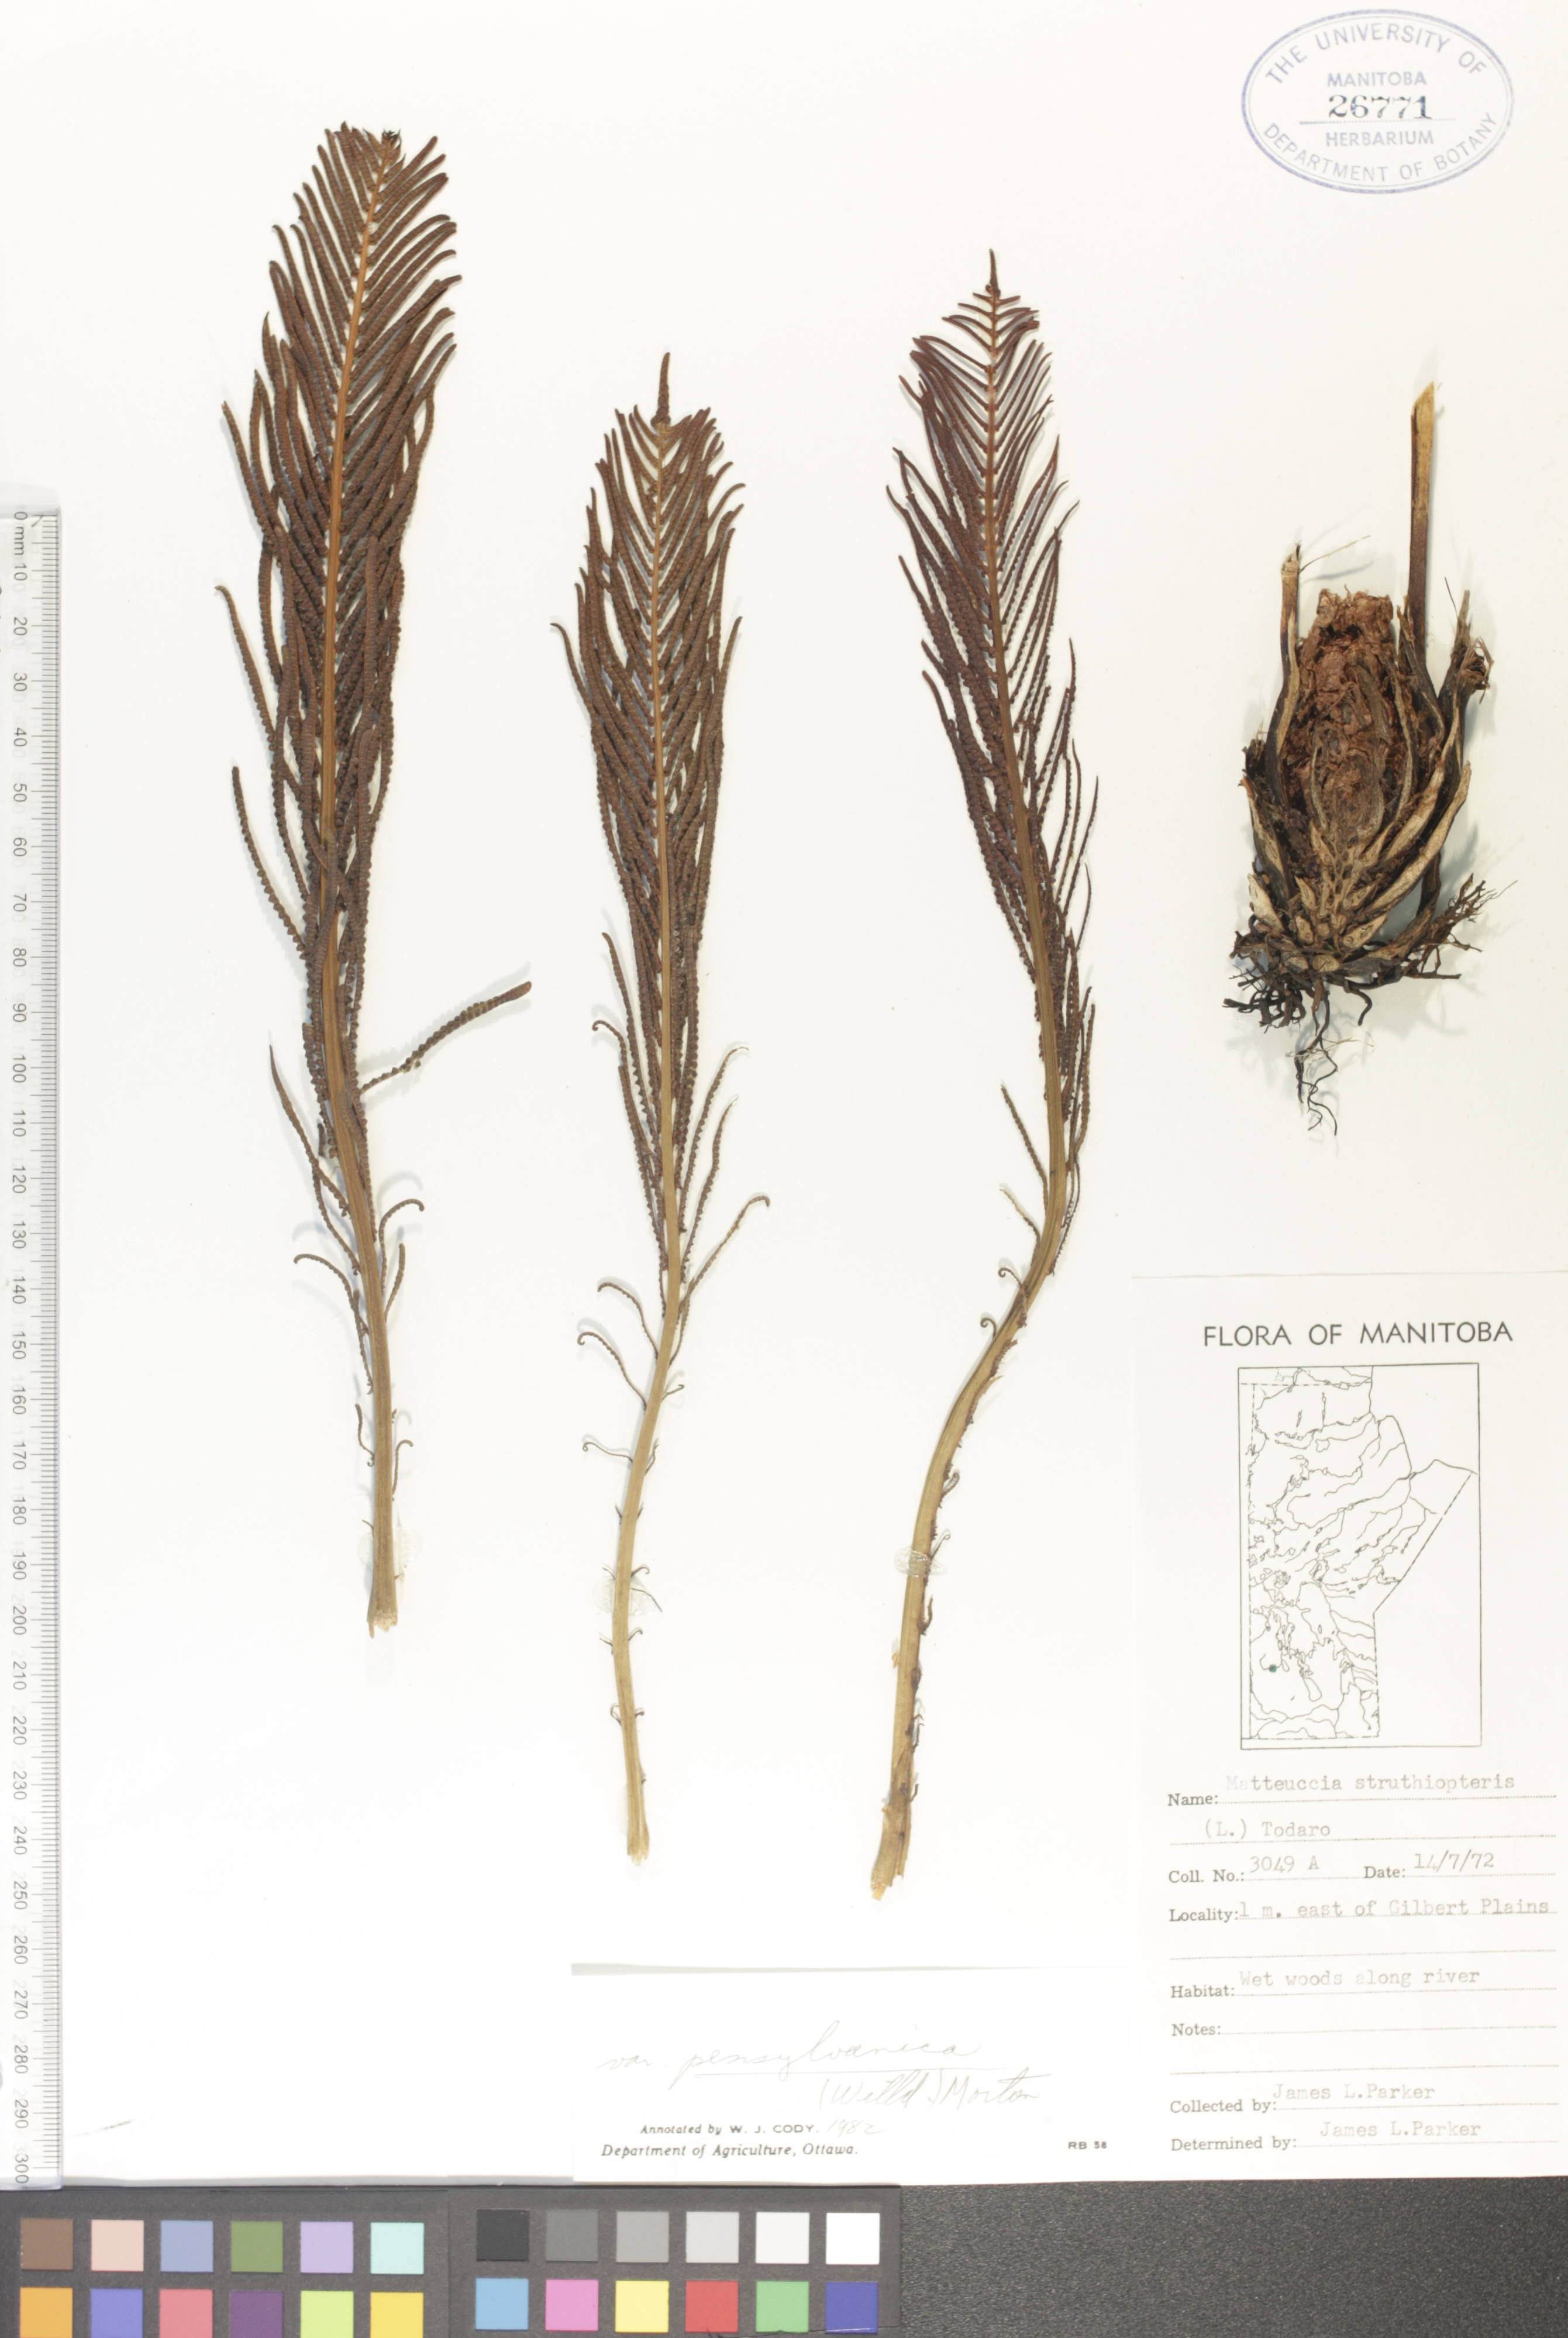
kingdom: Plantae
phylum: Tracheophyta
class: Polypodiopsida
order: Polypodiales
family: Onocleaceae
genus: Matteuccia
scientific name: Matteuccia pensylvanica
